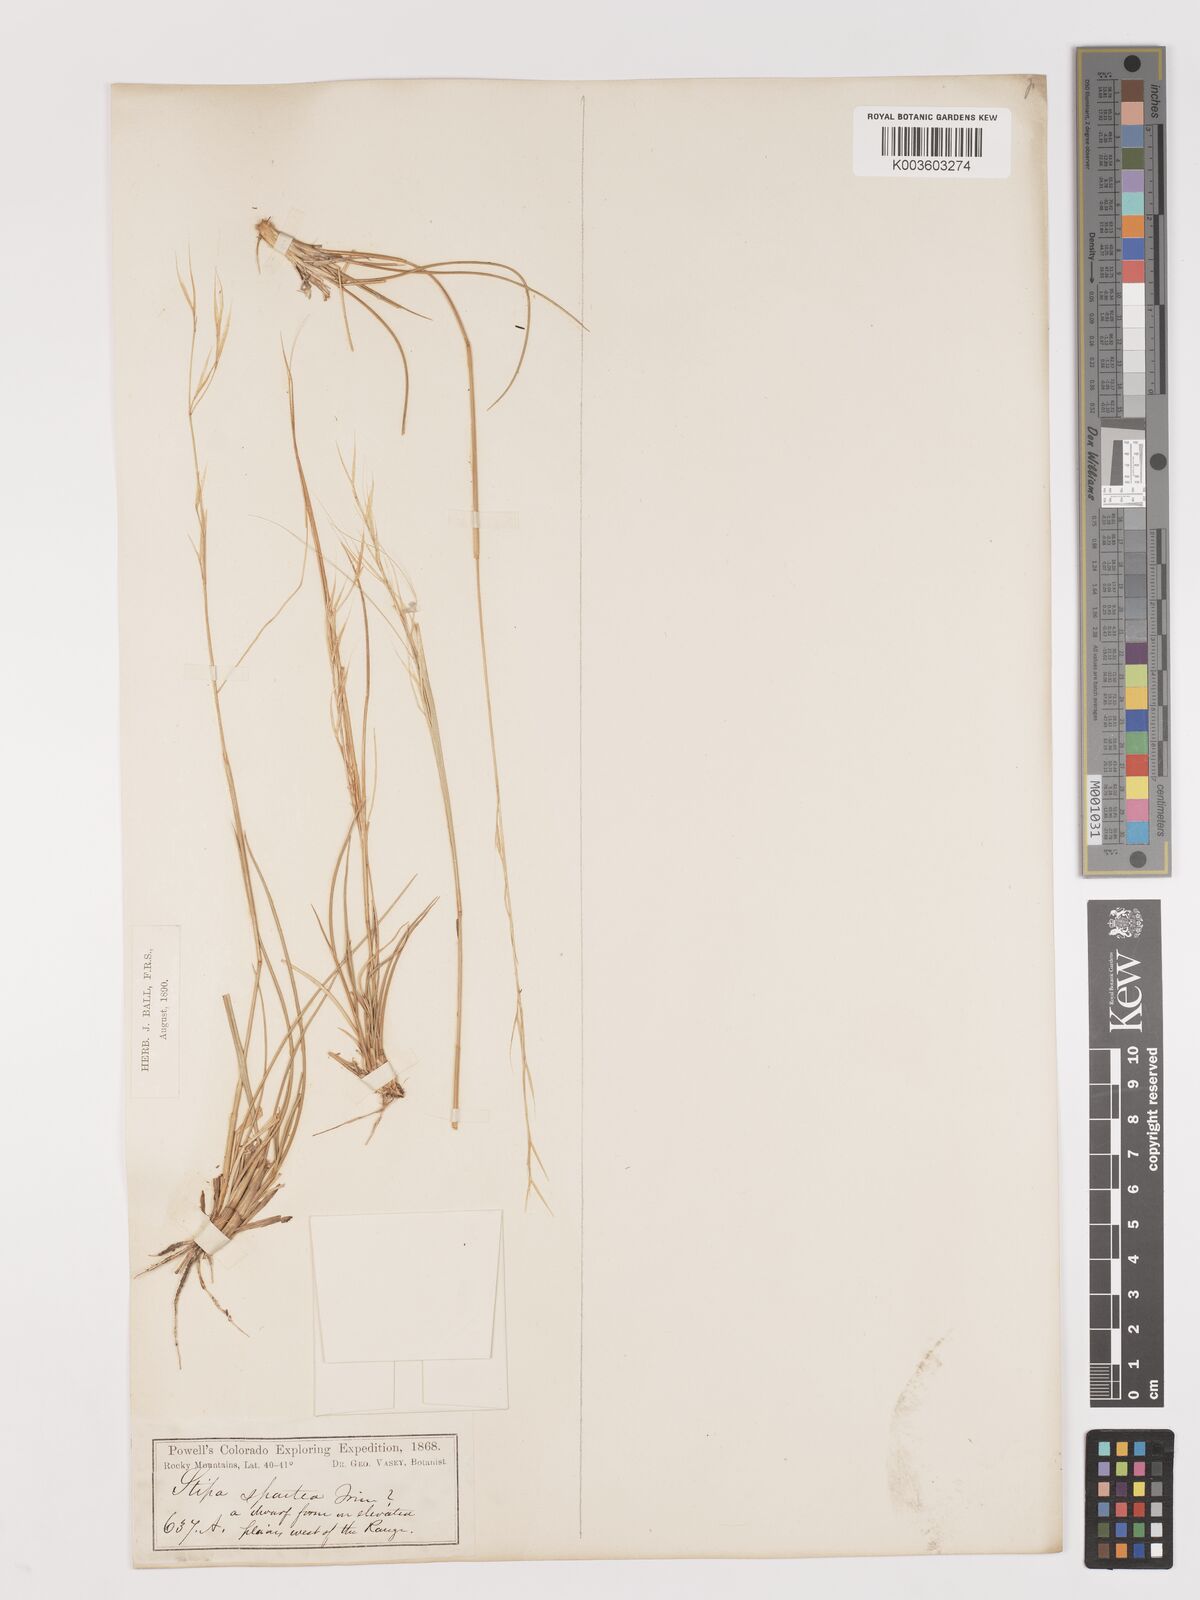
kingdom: Plantae
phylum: Tracheophyta
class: Liliopsida
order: Poales
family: Poaceae
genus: Hesperostipa
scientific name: Hesperostipa spartea
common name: Porcupine grass
